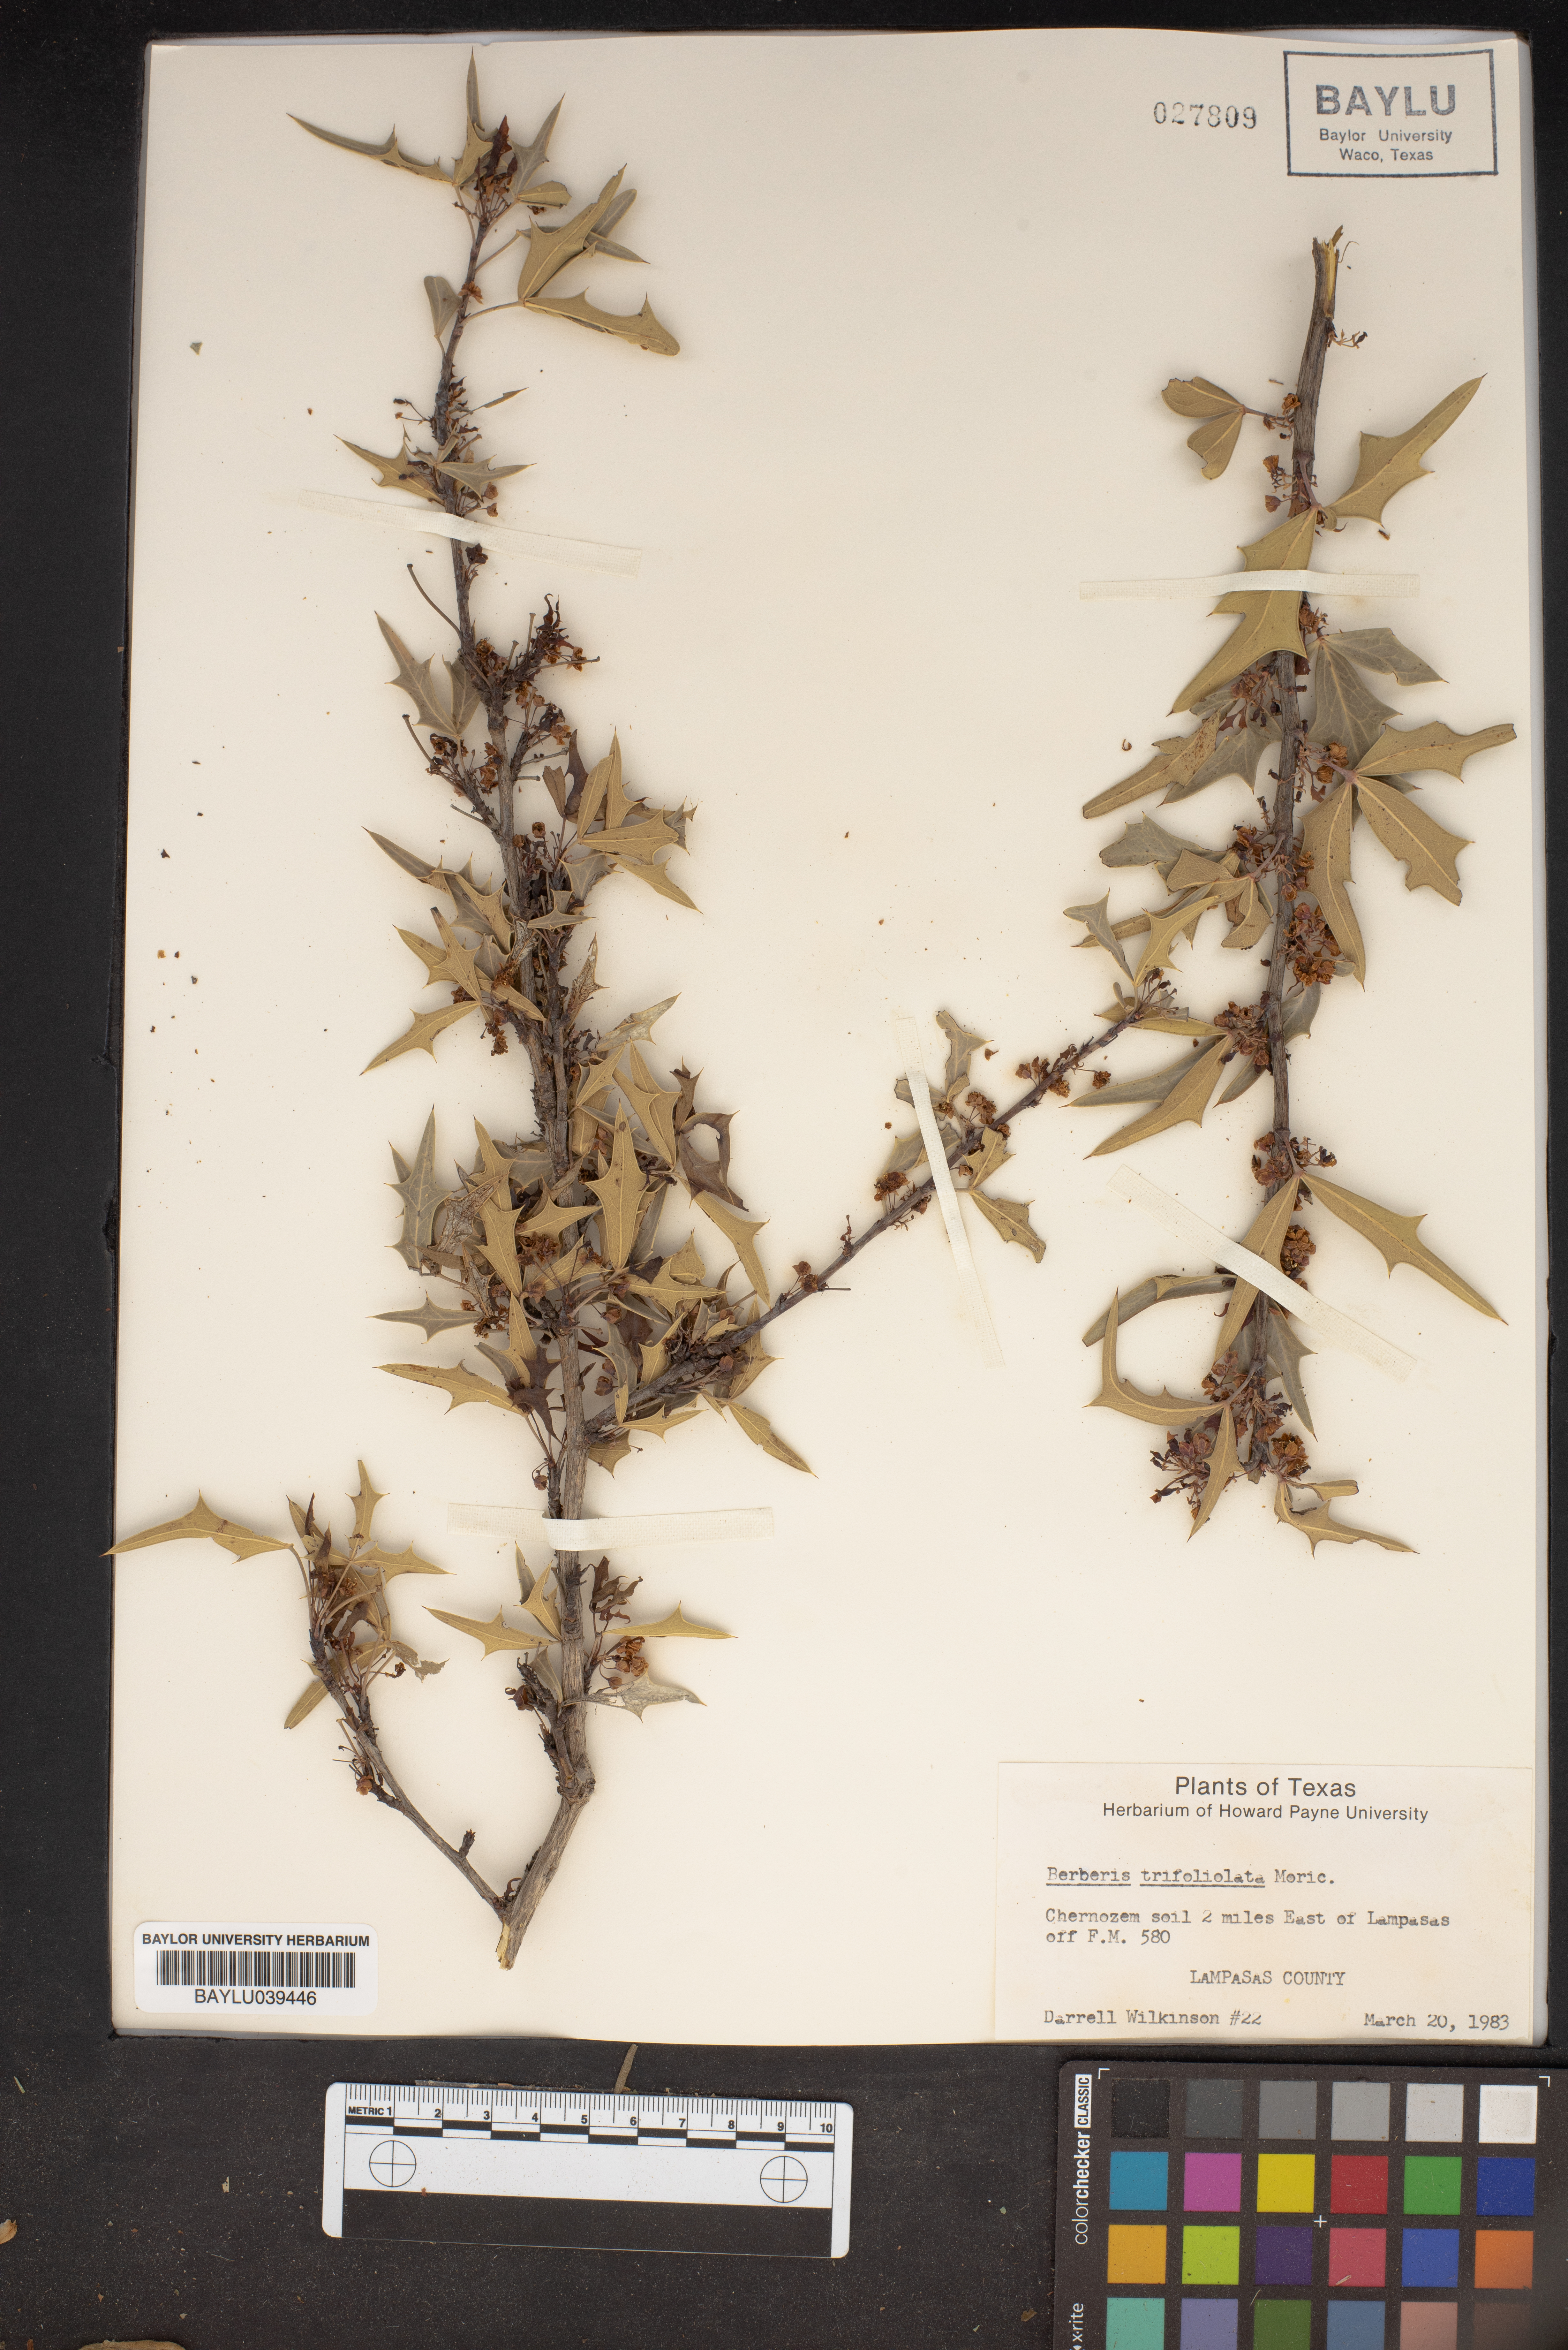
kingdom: Plantae
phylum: Tracheophyta
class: Magnoliopsida
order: Ranunculales
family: Berberidaceae
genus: Alloberberis
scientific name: Alloberberis trifoliolata
